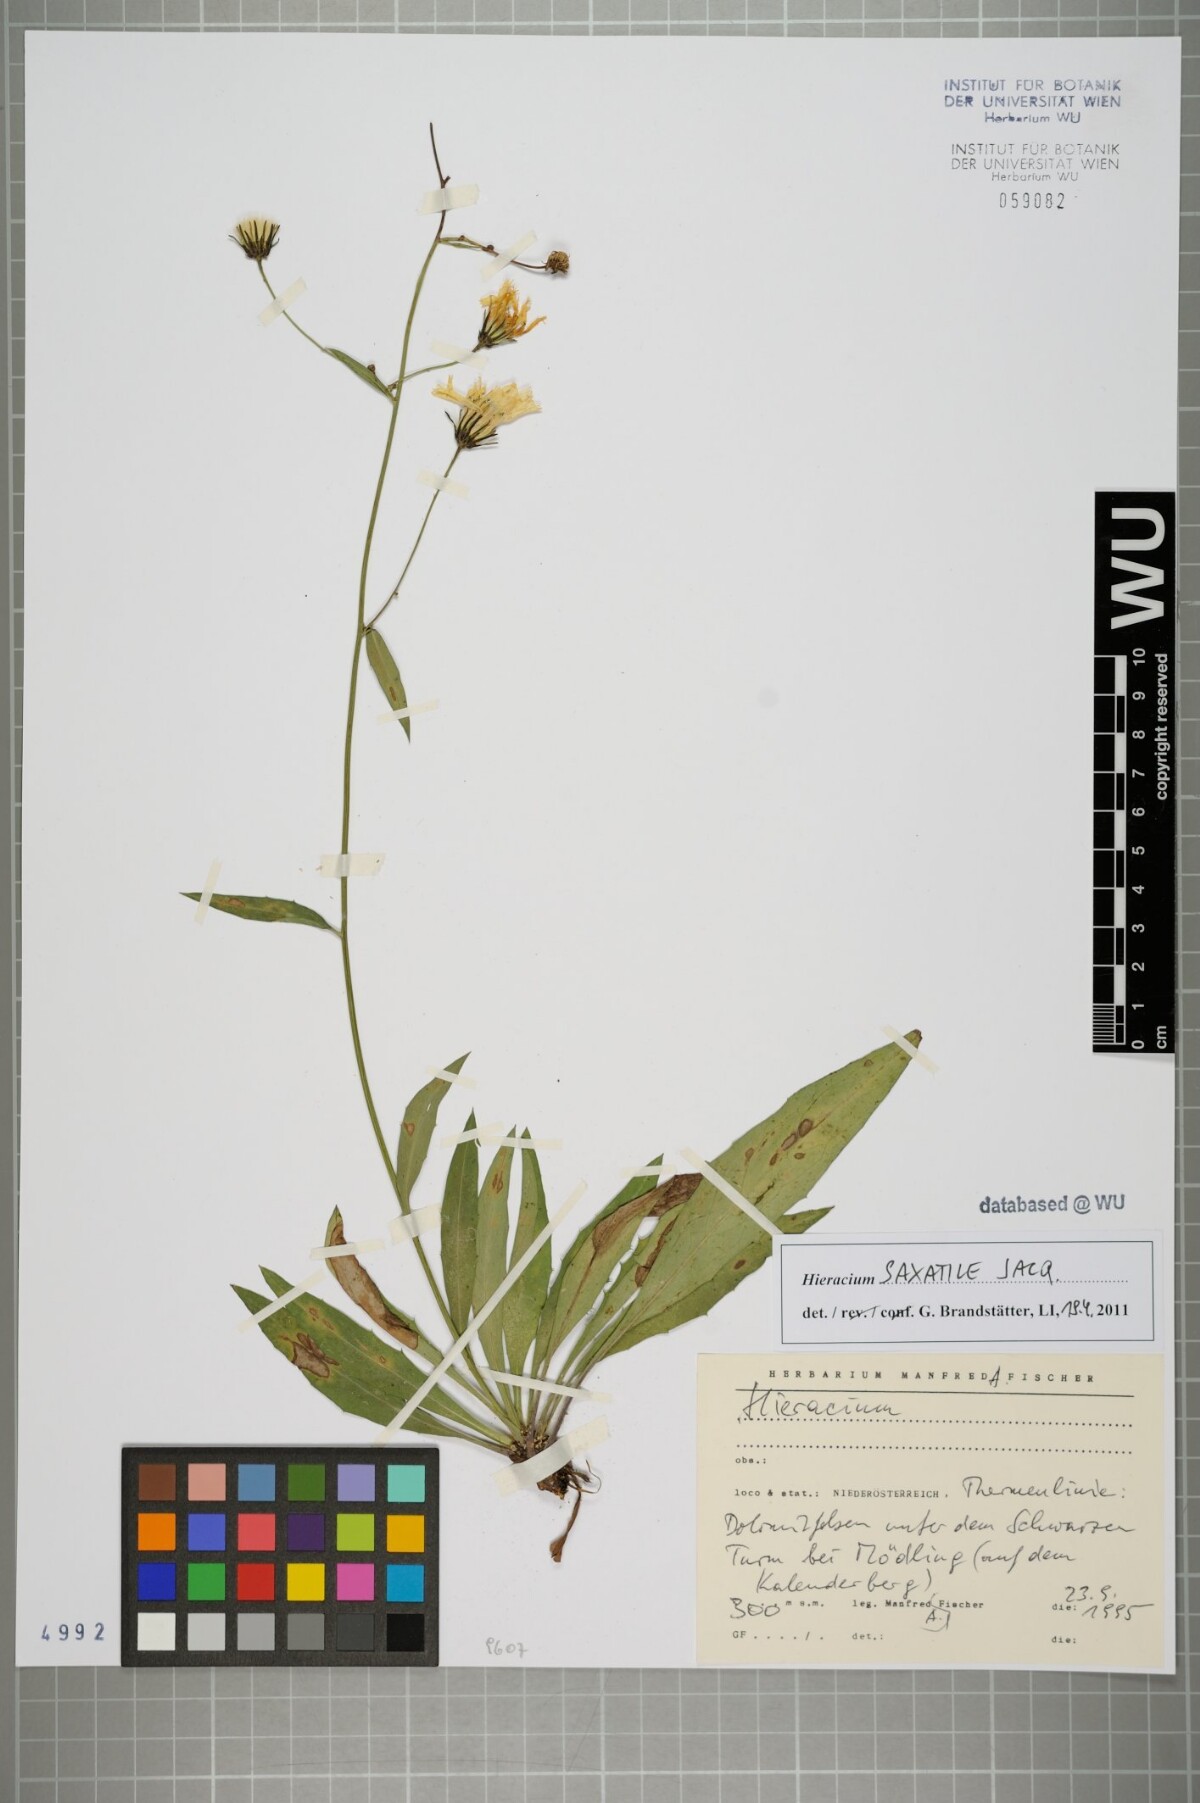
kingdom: Plantae
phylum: Tracheophyta
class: Magnoliopsida
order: Asterales
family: Asteraceae
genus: Hieracium
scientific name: Hieracium saxatile
